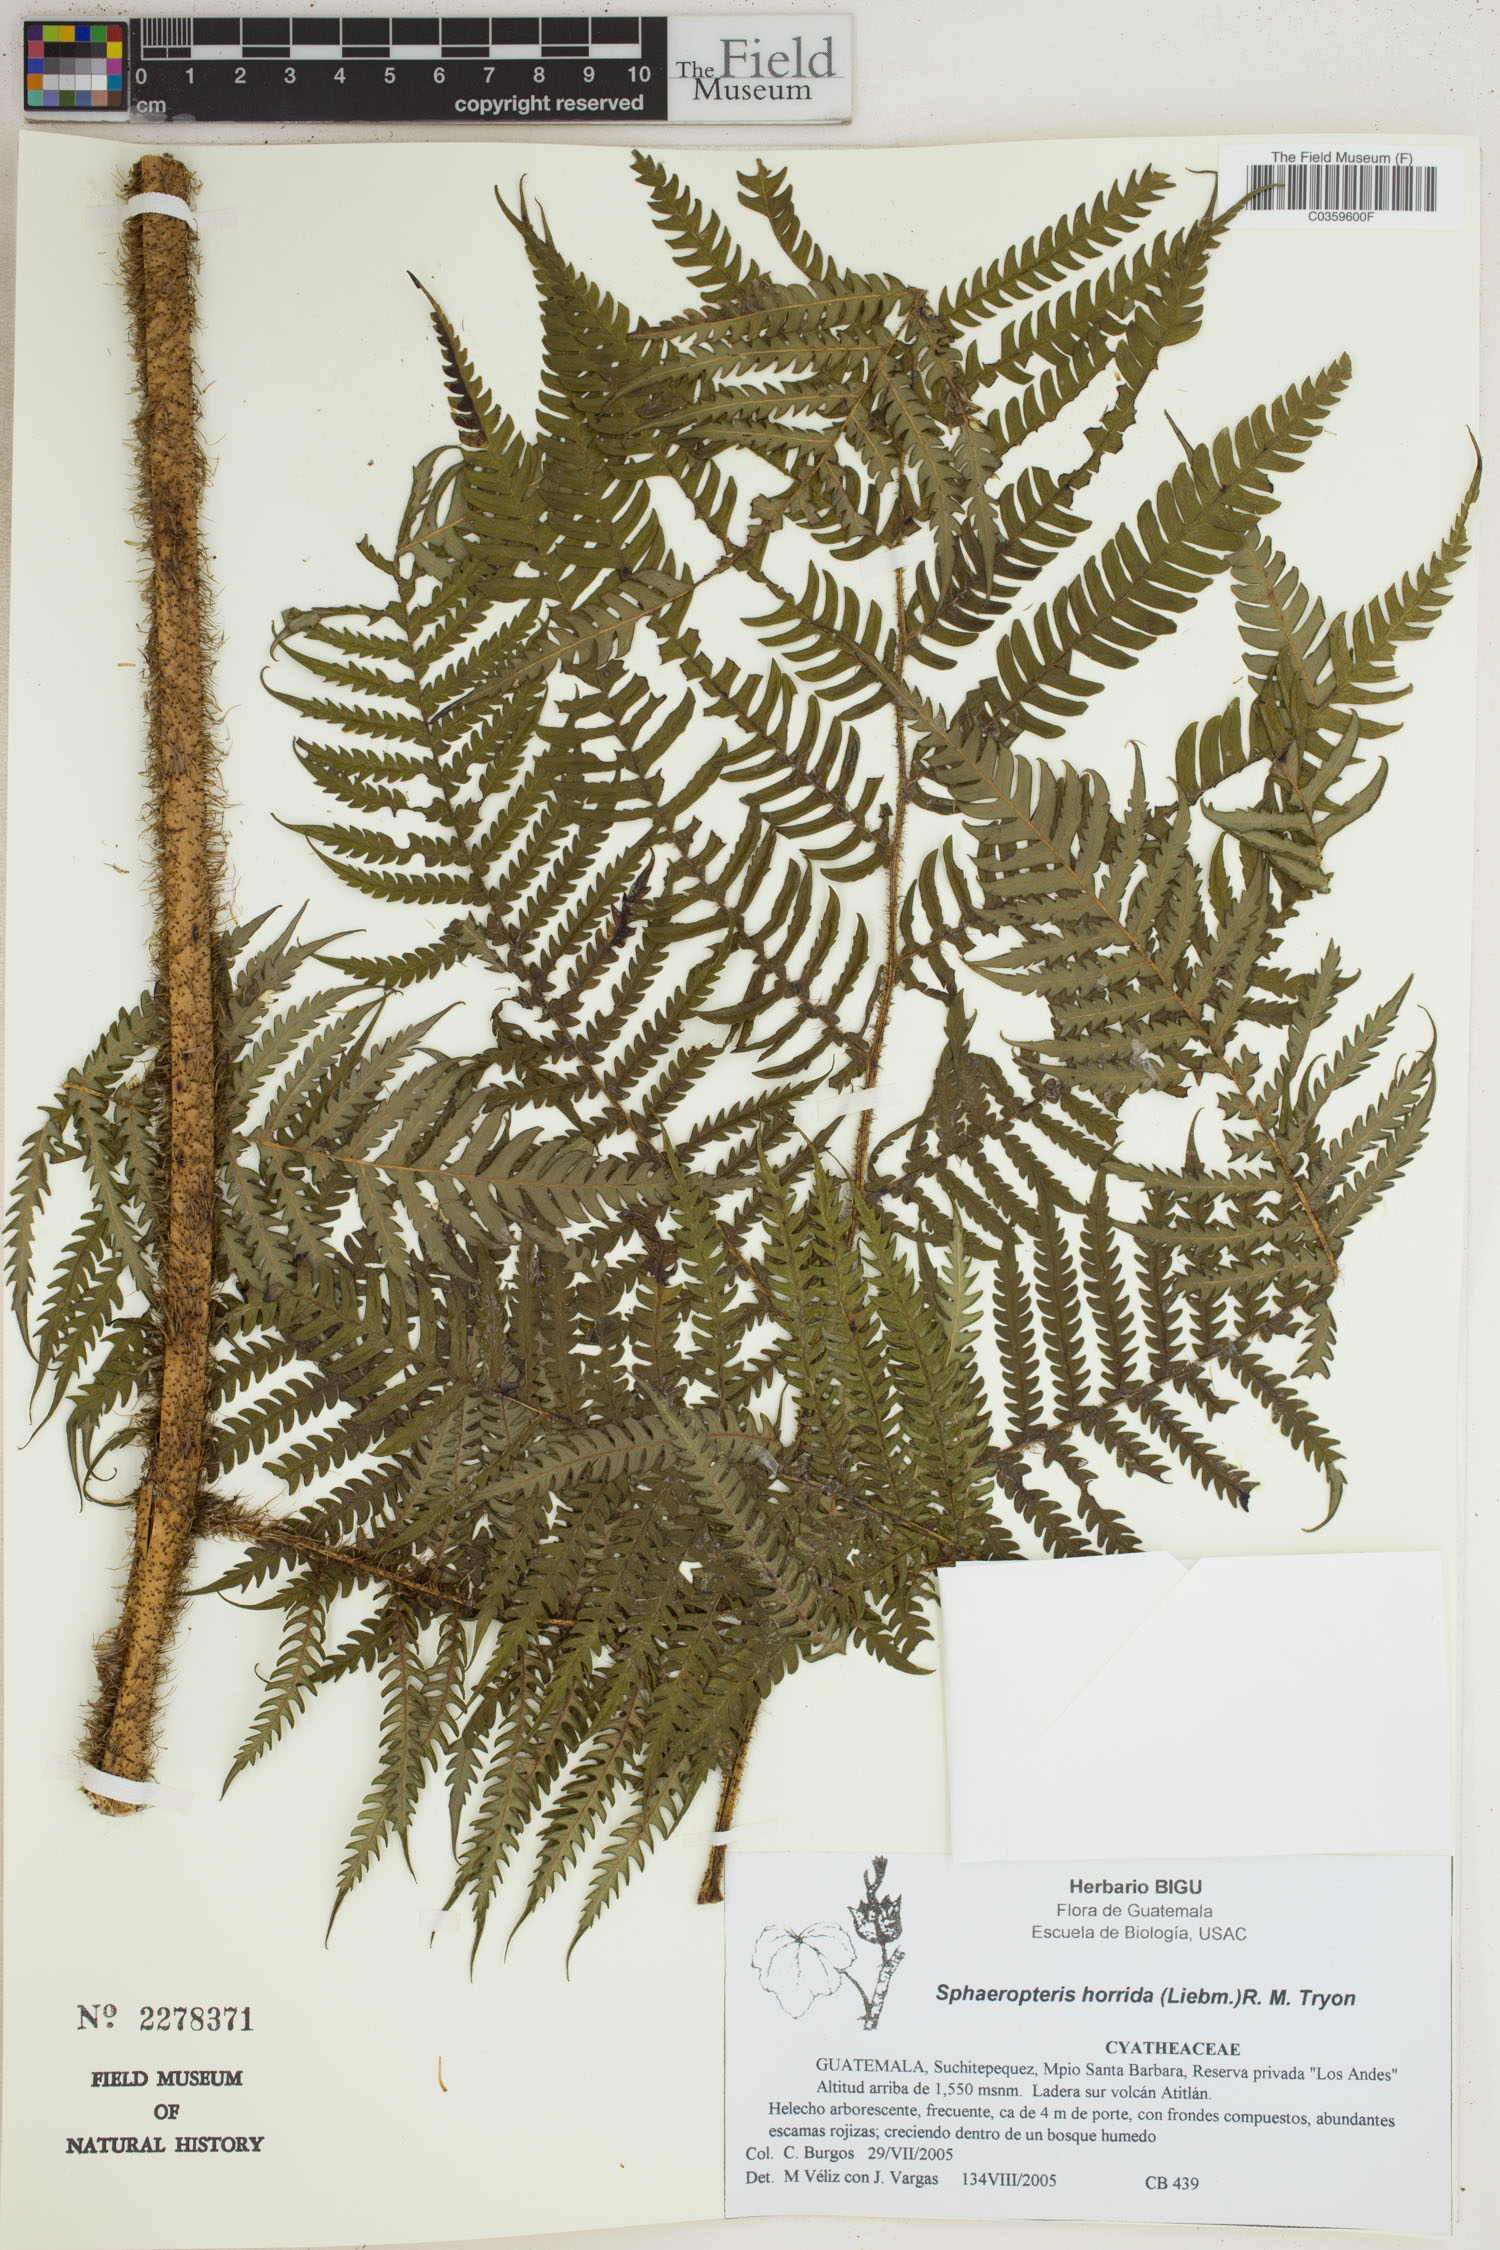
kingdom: Plantae
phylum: Tracheophyta
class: Polypodiopsida
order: Cyatheales
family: Cyatheaceae
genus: Sphaeropteris
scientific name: Sphaeropteris horrida
